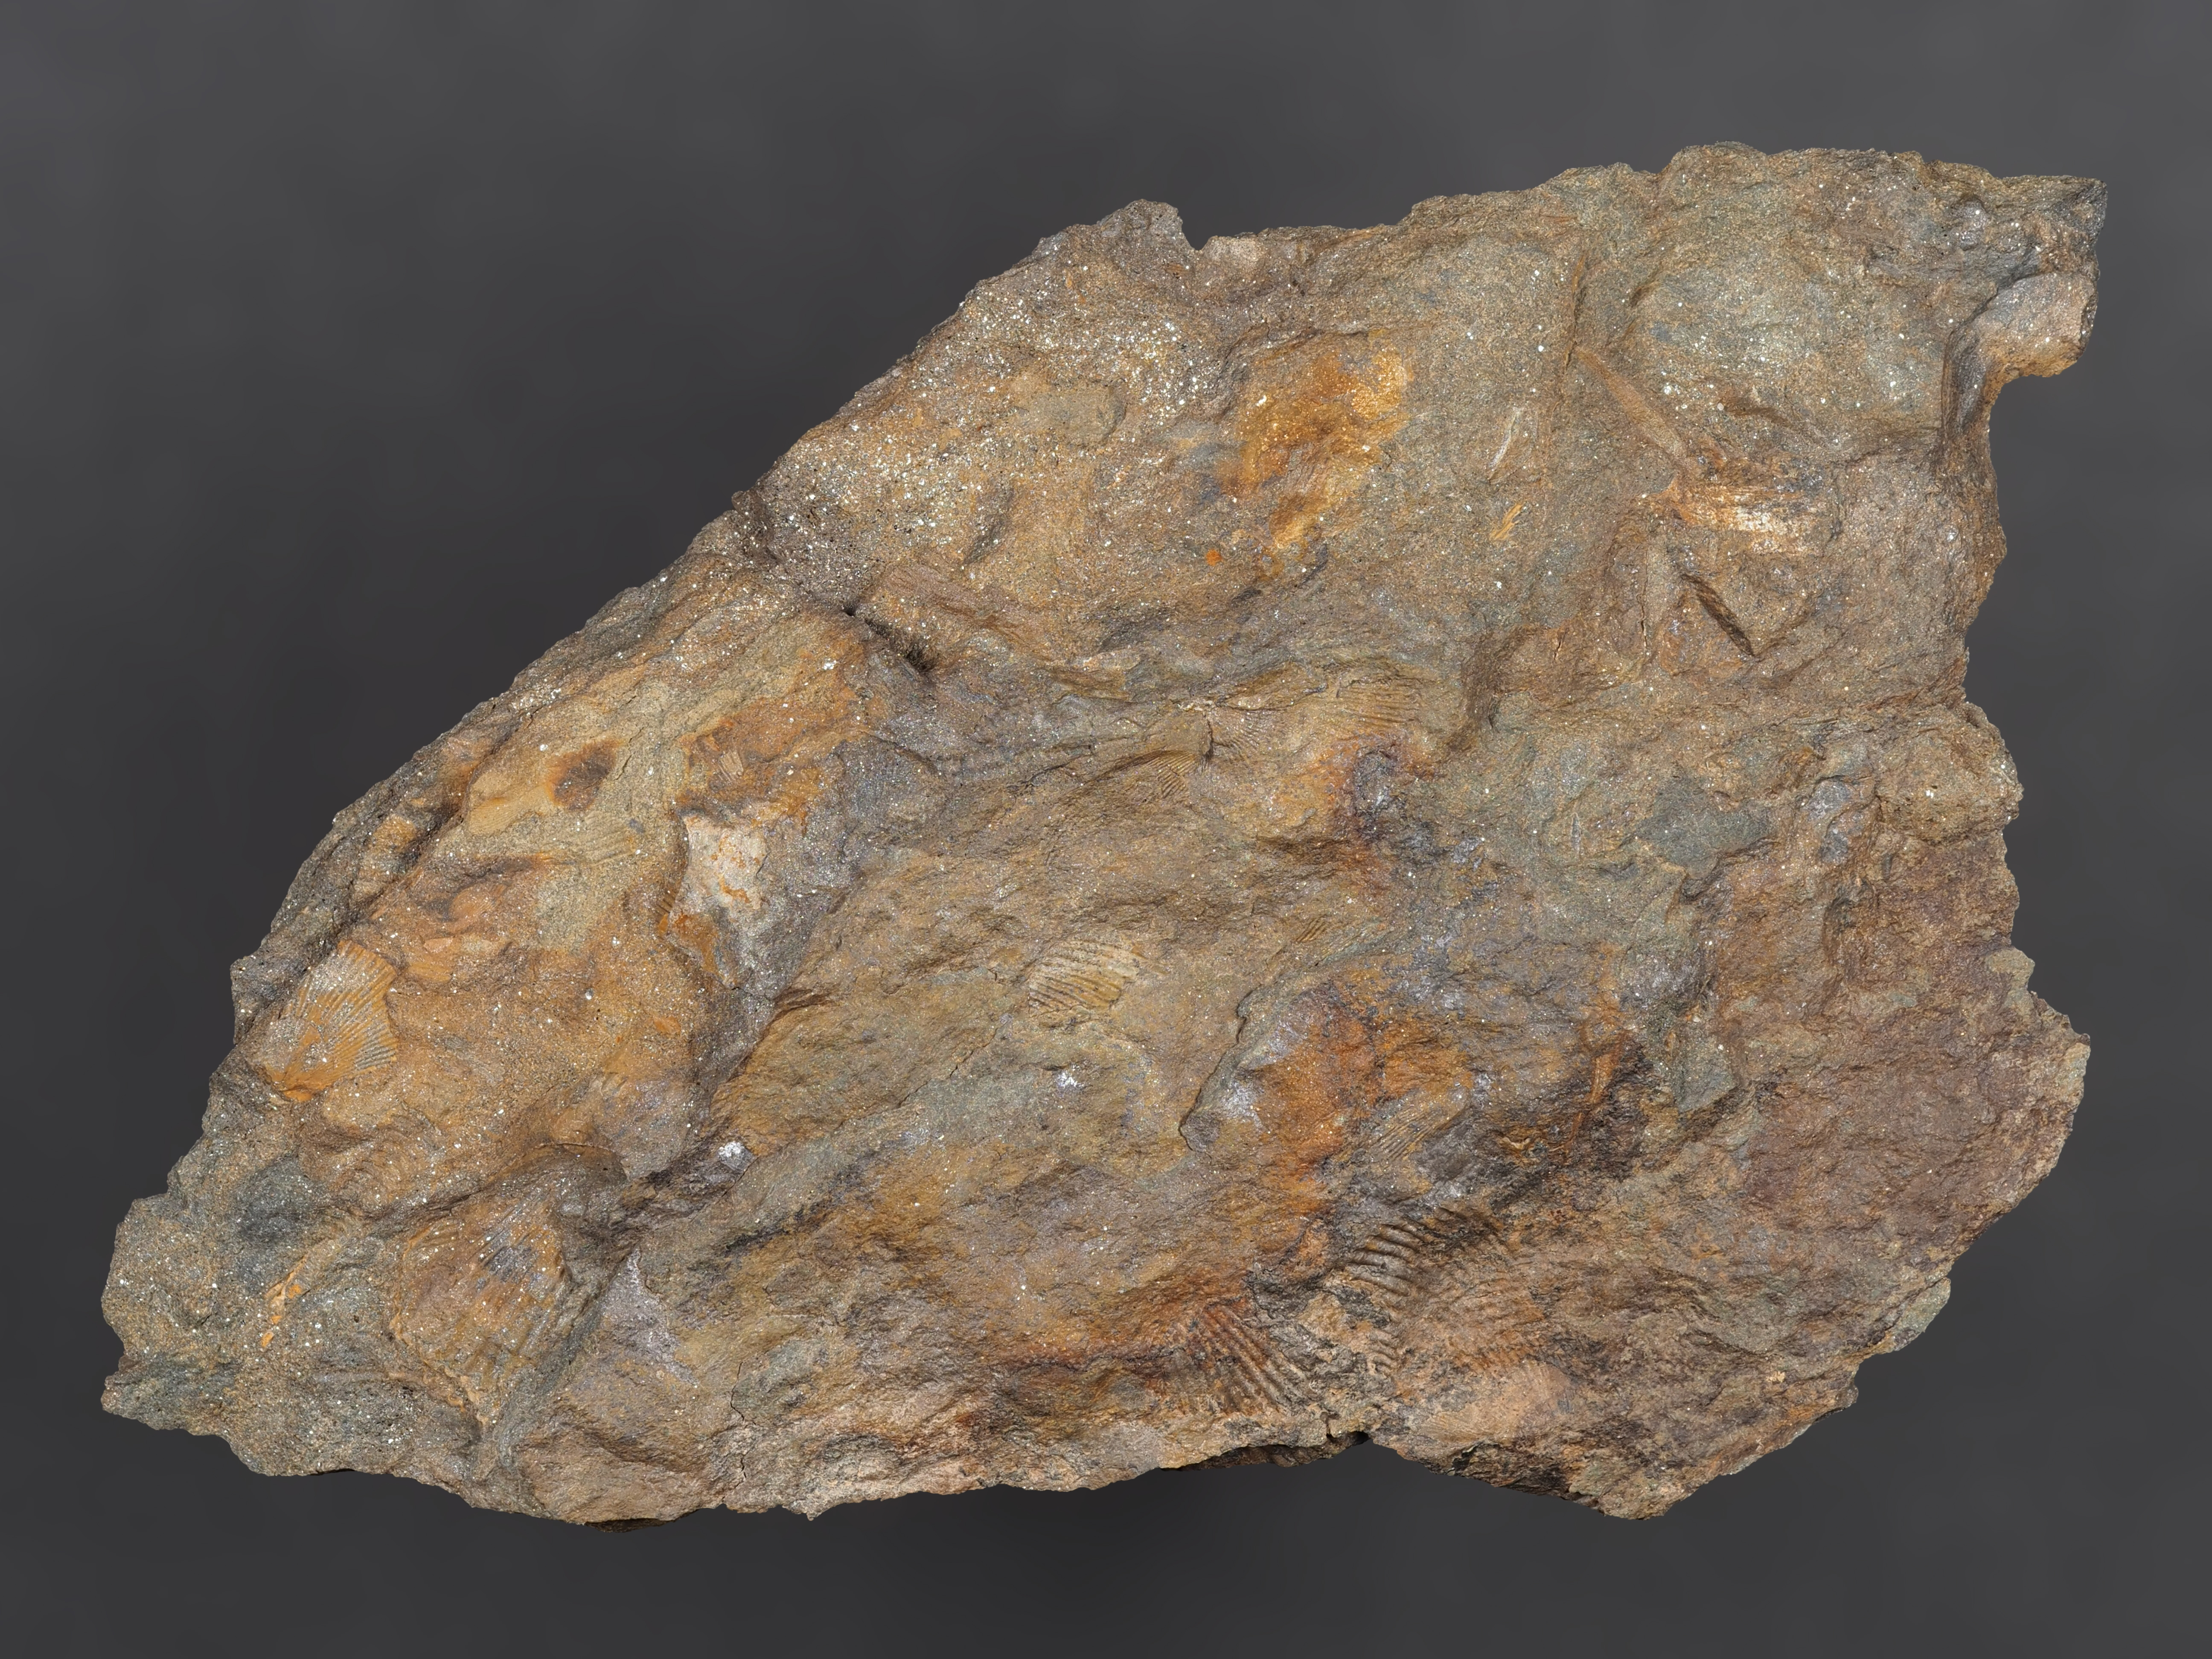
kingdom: Animalia
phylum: Brachiopoda
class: Rhynchonellata
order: Terebratulida
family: Mutationellidae
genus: Mutationella
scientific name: Mutationella
